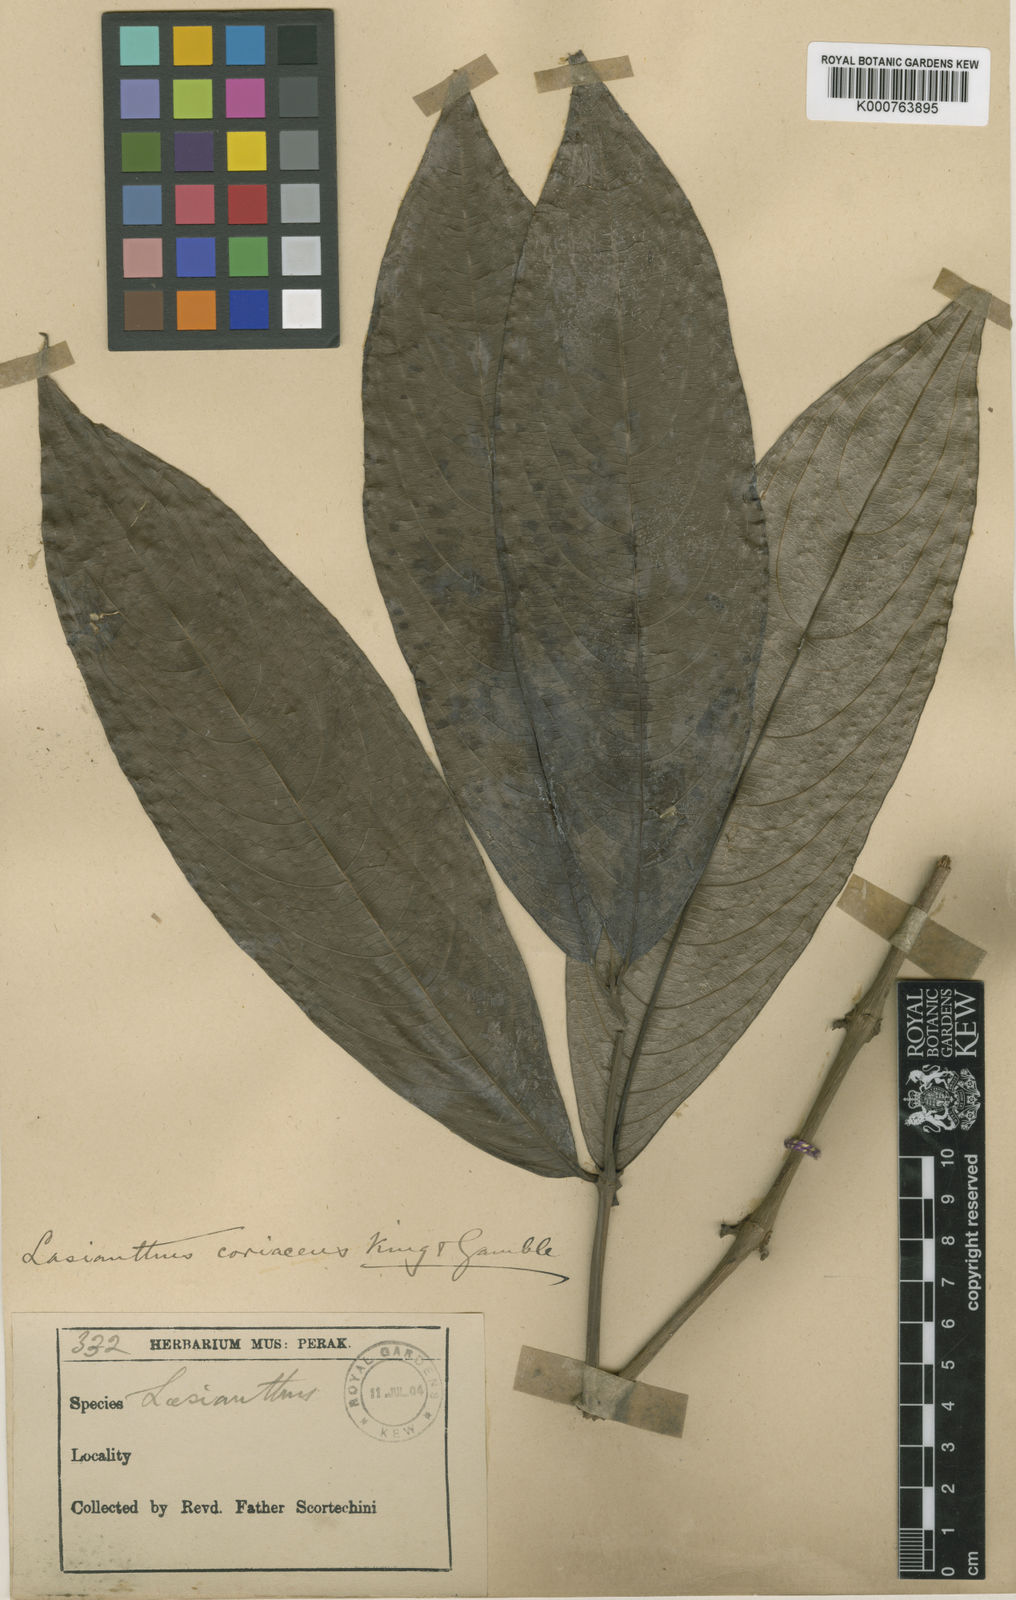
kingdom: Plantae
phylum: Tracheophyta
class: Magnoliopsida
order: Gentianales
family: Rubiaceae
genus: Lasianthus
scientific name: Lasianthus pergamaceus
